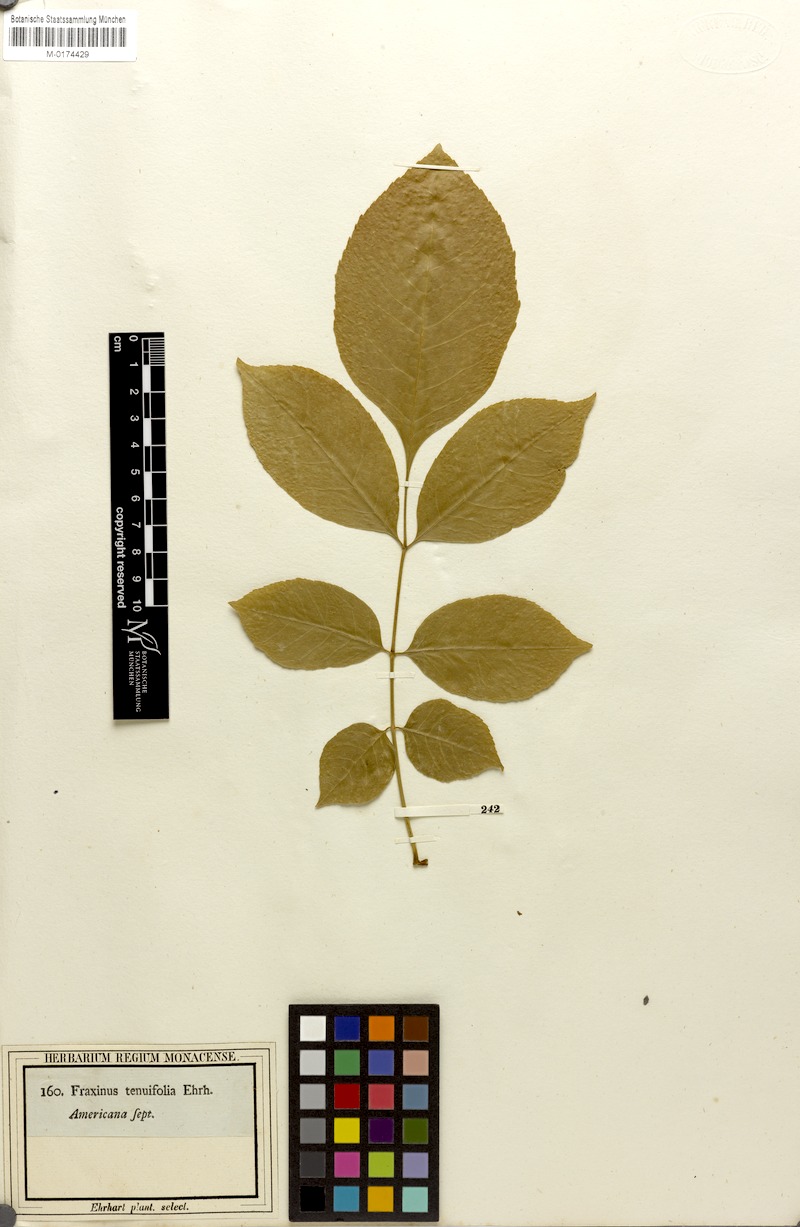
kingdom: Plantae
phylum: Tracheophyta
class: Magnoliopsida
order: Lamiales
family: Oleaceae
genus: Fraxinus
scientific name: Fraxinus quadrangulata
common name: Blue ash
